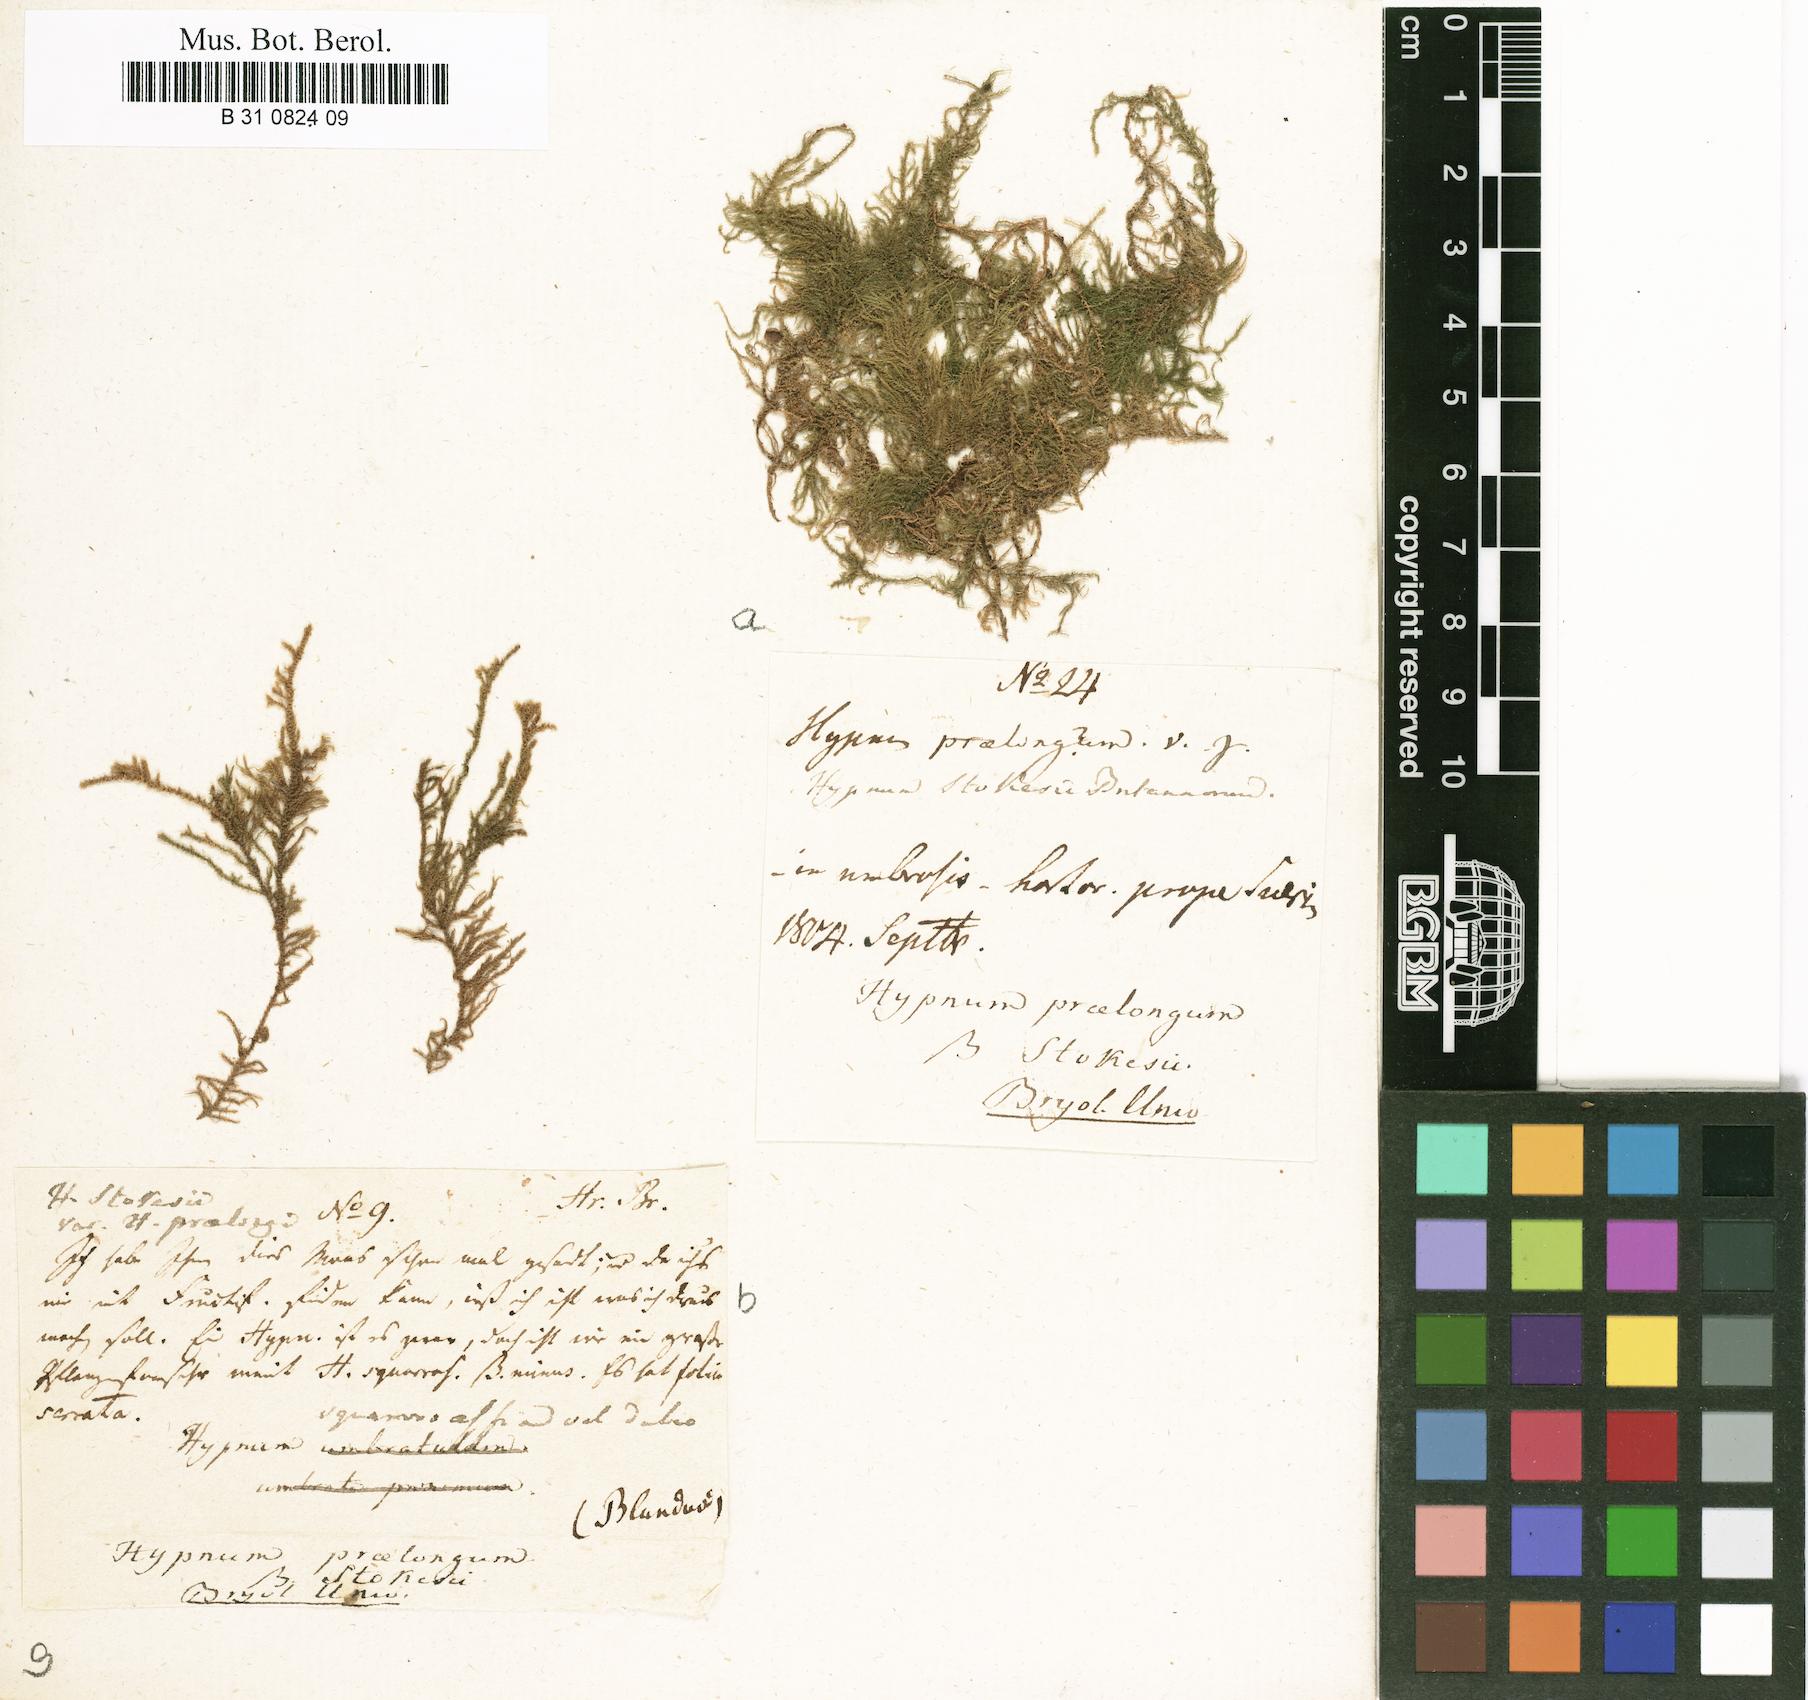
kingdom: Plantae
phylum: Bryophyta
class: Bryopsida
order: Hypnales
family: Brachytheciaceae
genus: Kindbergia
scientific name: Kindbergia praelonga
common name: Slender beaked moss
